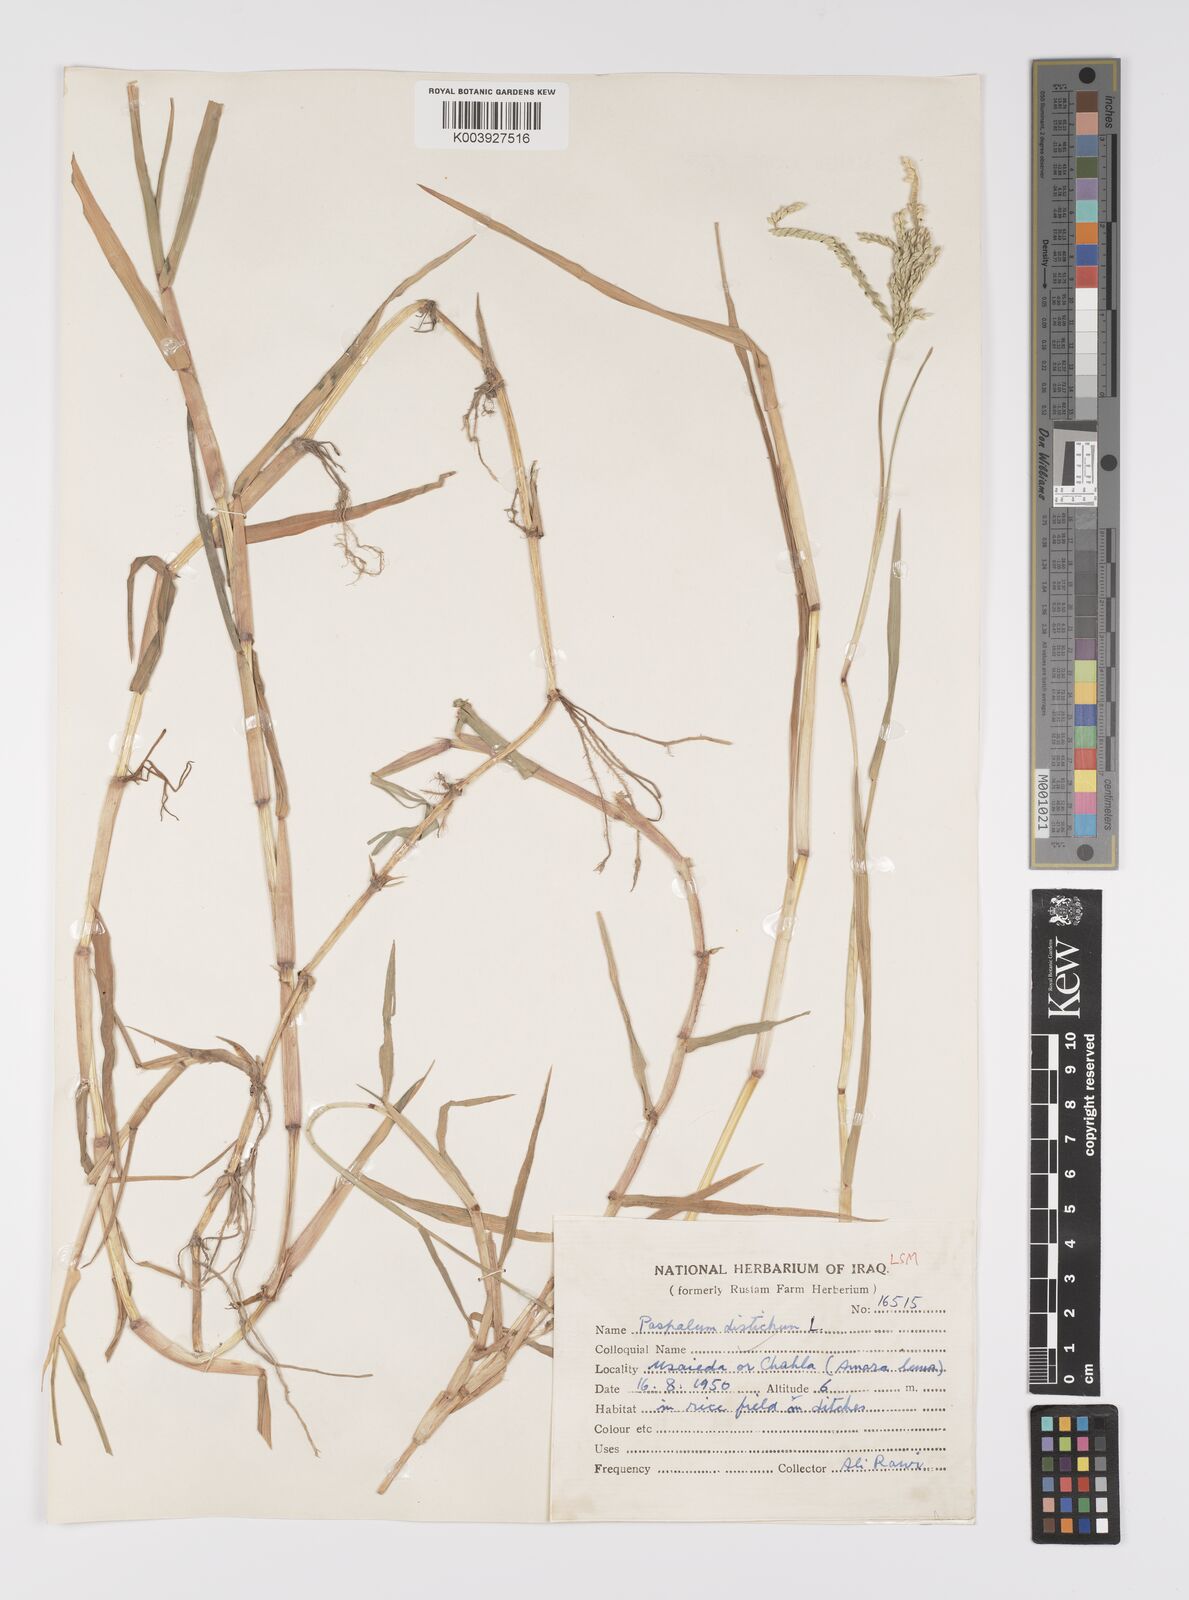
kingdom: Plantae
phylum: Tracheophyta
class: Liliopsida
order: Poales
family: Poaceae
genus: Paspalum
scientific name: Paspalum distichum
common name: Knotgrass
